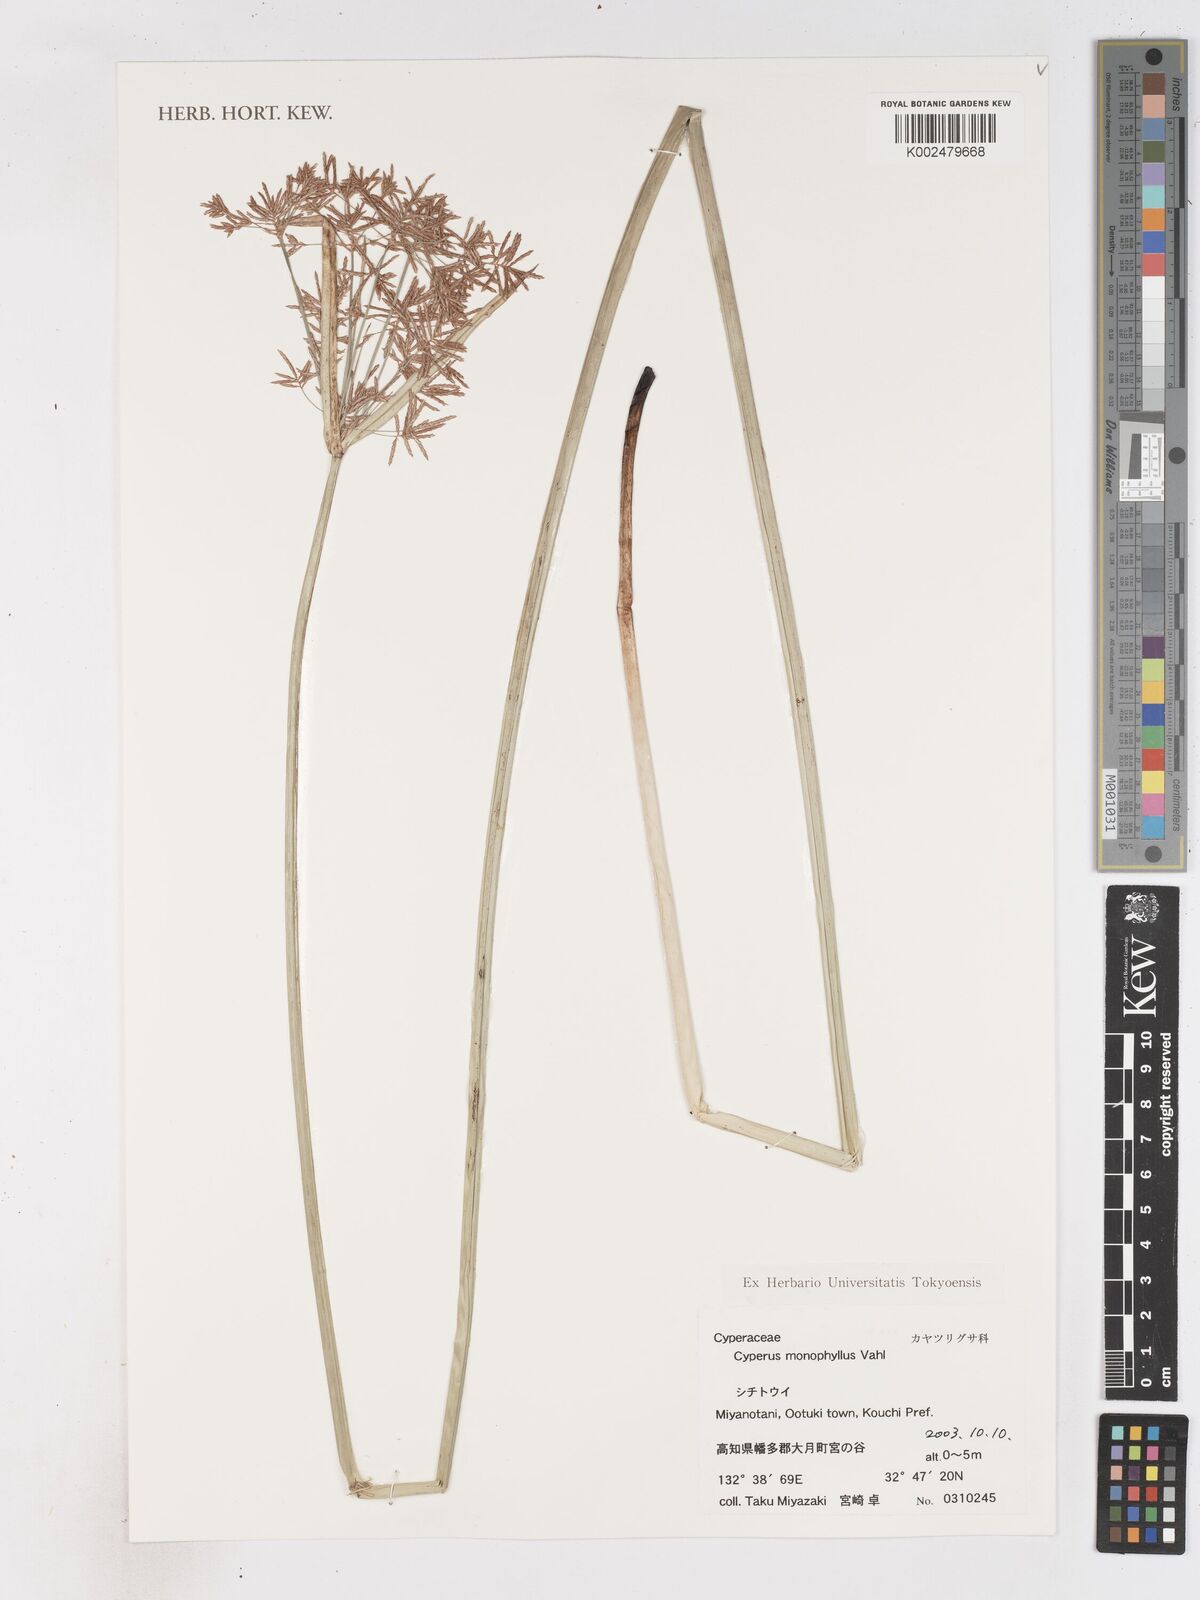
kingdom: Plantae
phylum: Tracheophyta
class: Liliopsida
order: Poales
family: Cyperaceae
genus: Cyperus
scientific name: Cyperus malaccensis
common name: Shichito matgrass
